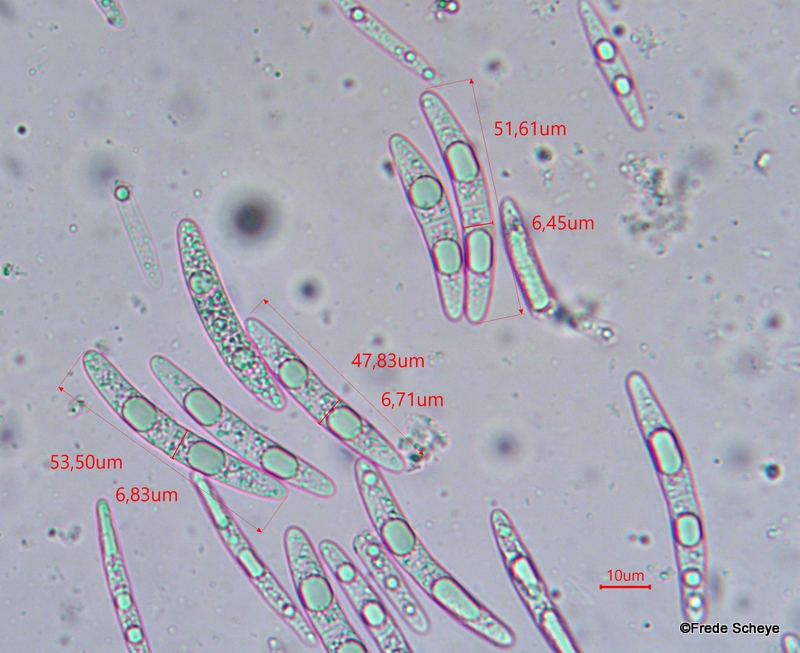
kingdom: Fungi
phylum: Ascomycota
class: Sordariomycetes
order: Coronophorales
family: Bertiaceae
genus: Bertia
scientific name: Bertia moriformis
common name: almindelig morbærkerne
